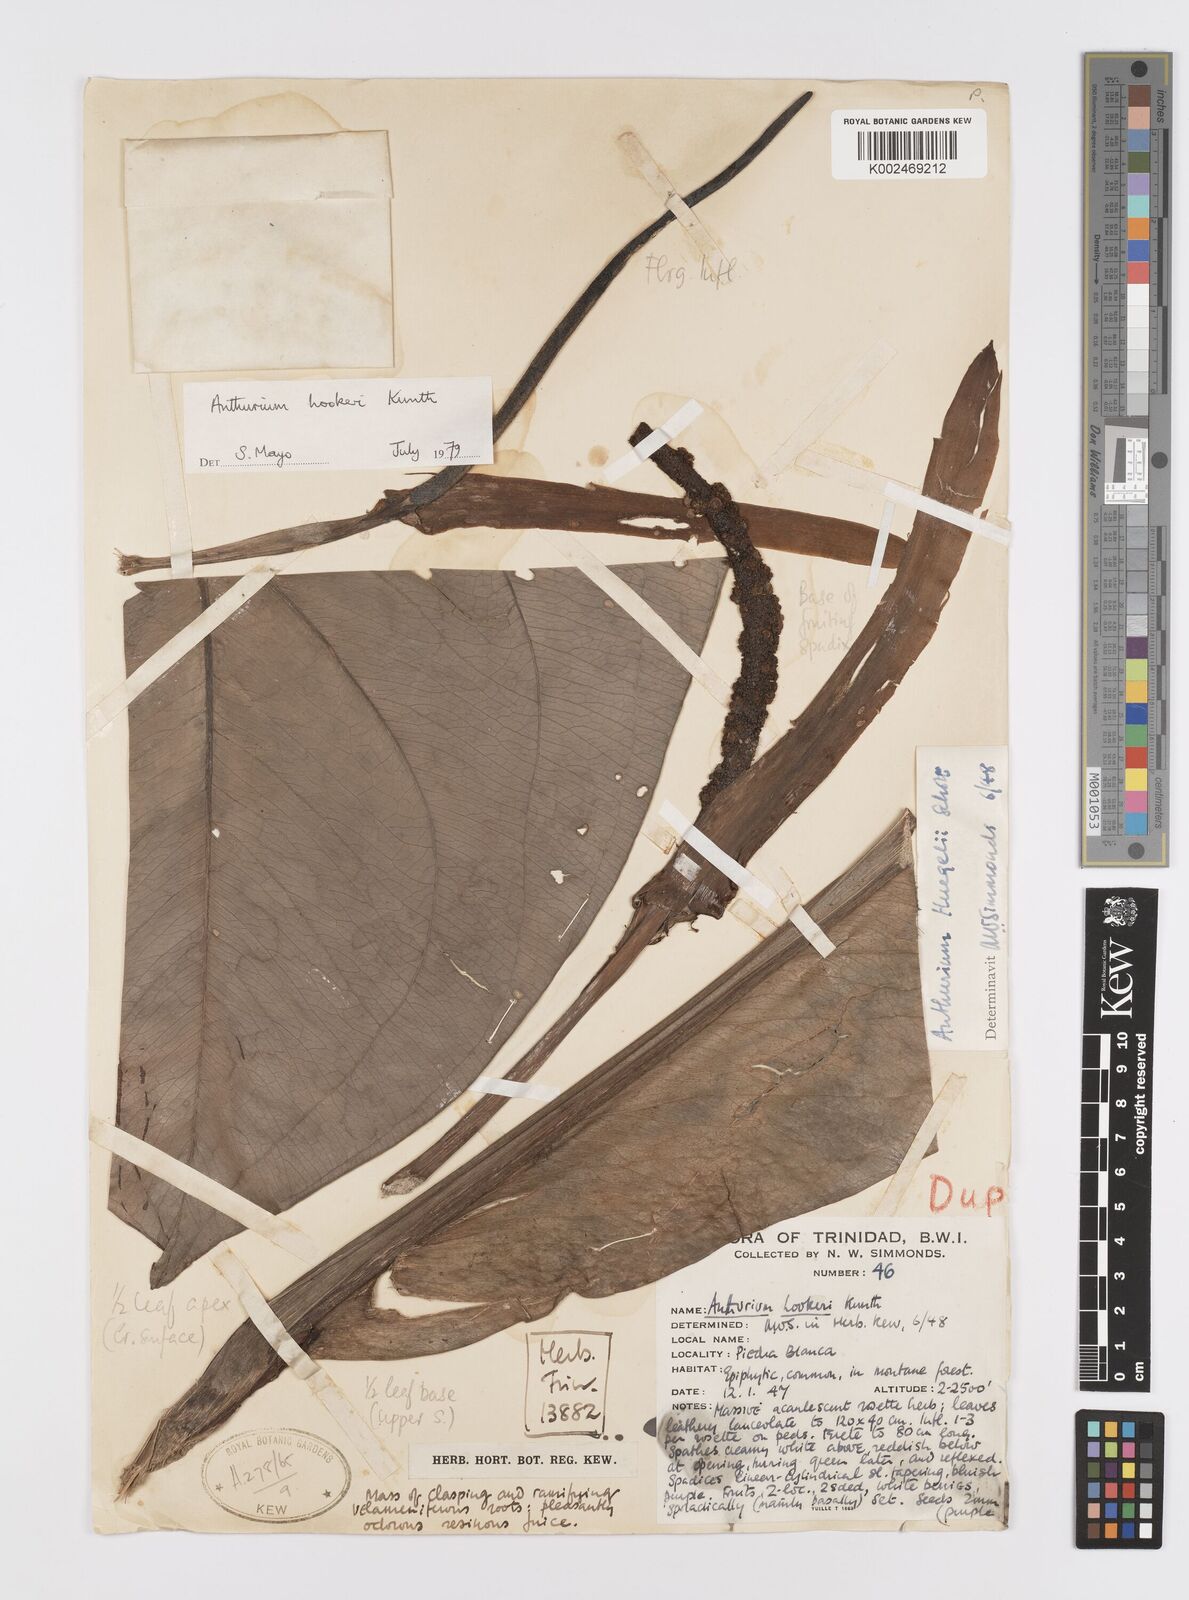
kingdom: Plantae
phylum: Tracheophyta
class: Liliopsida
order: Alismatales
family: Araceae
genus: Anthurium
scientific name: Anthurium hookeri
